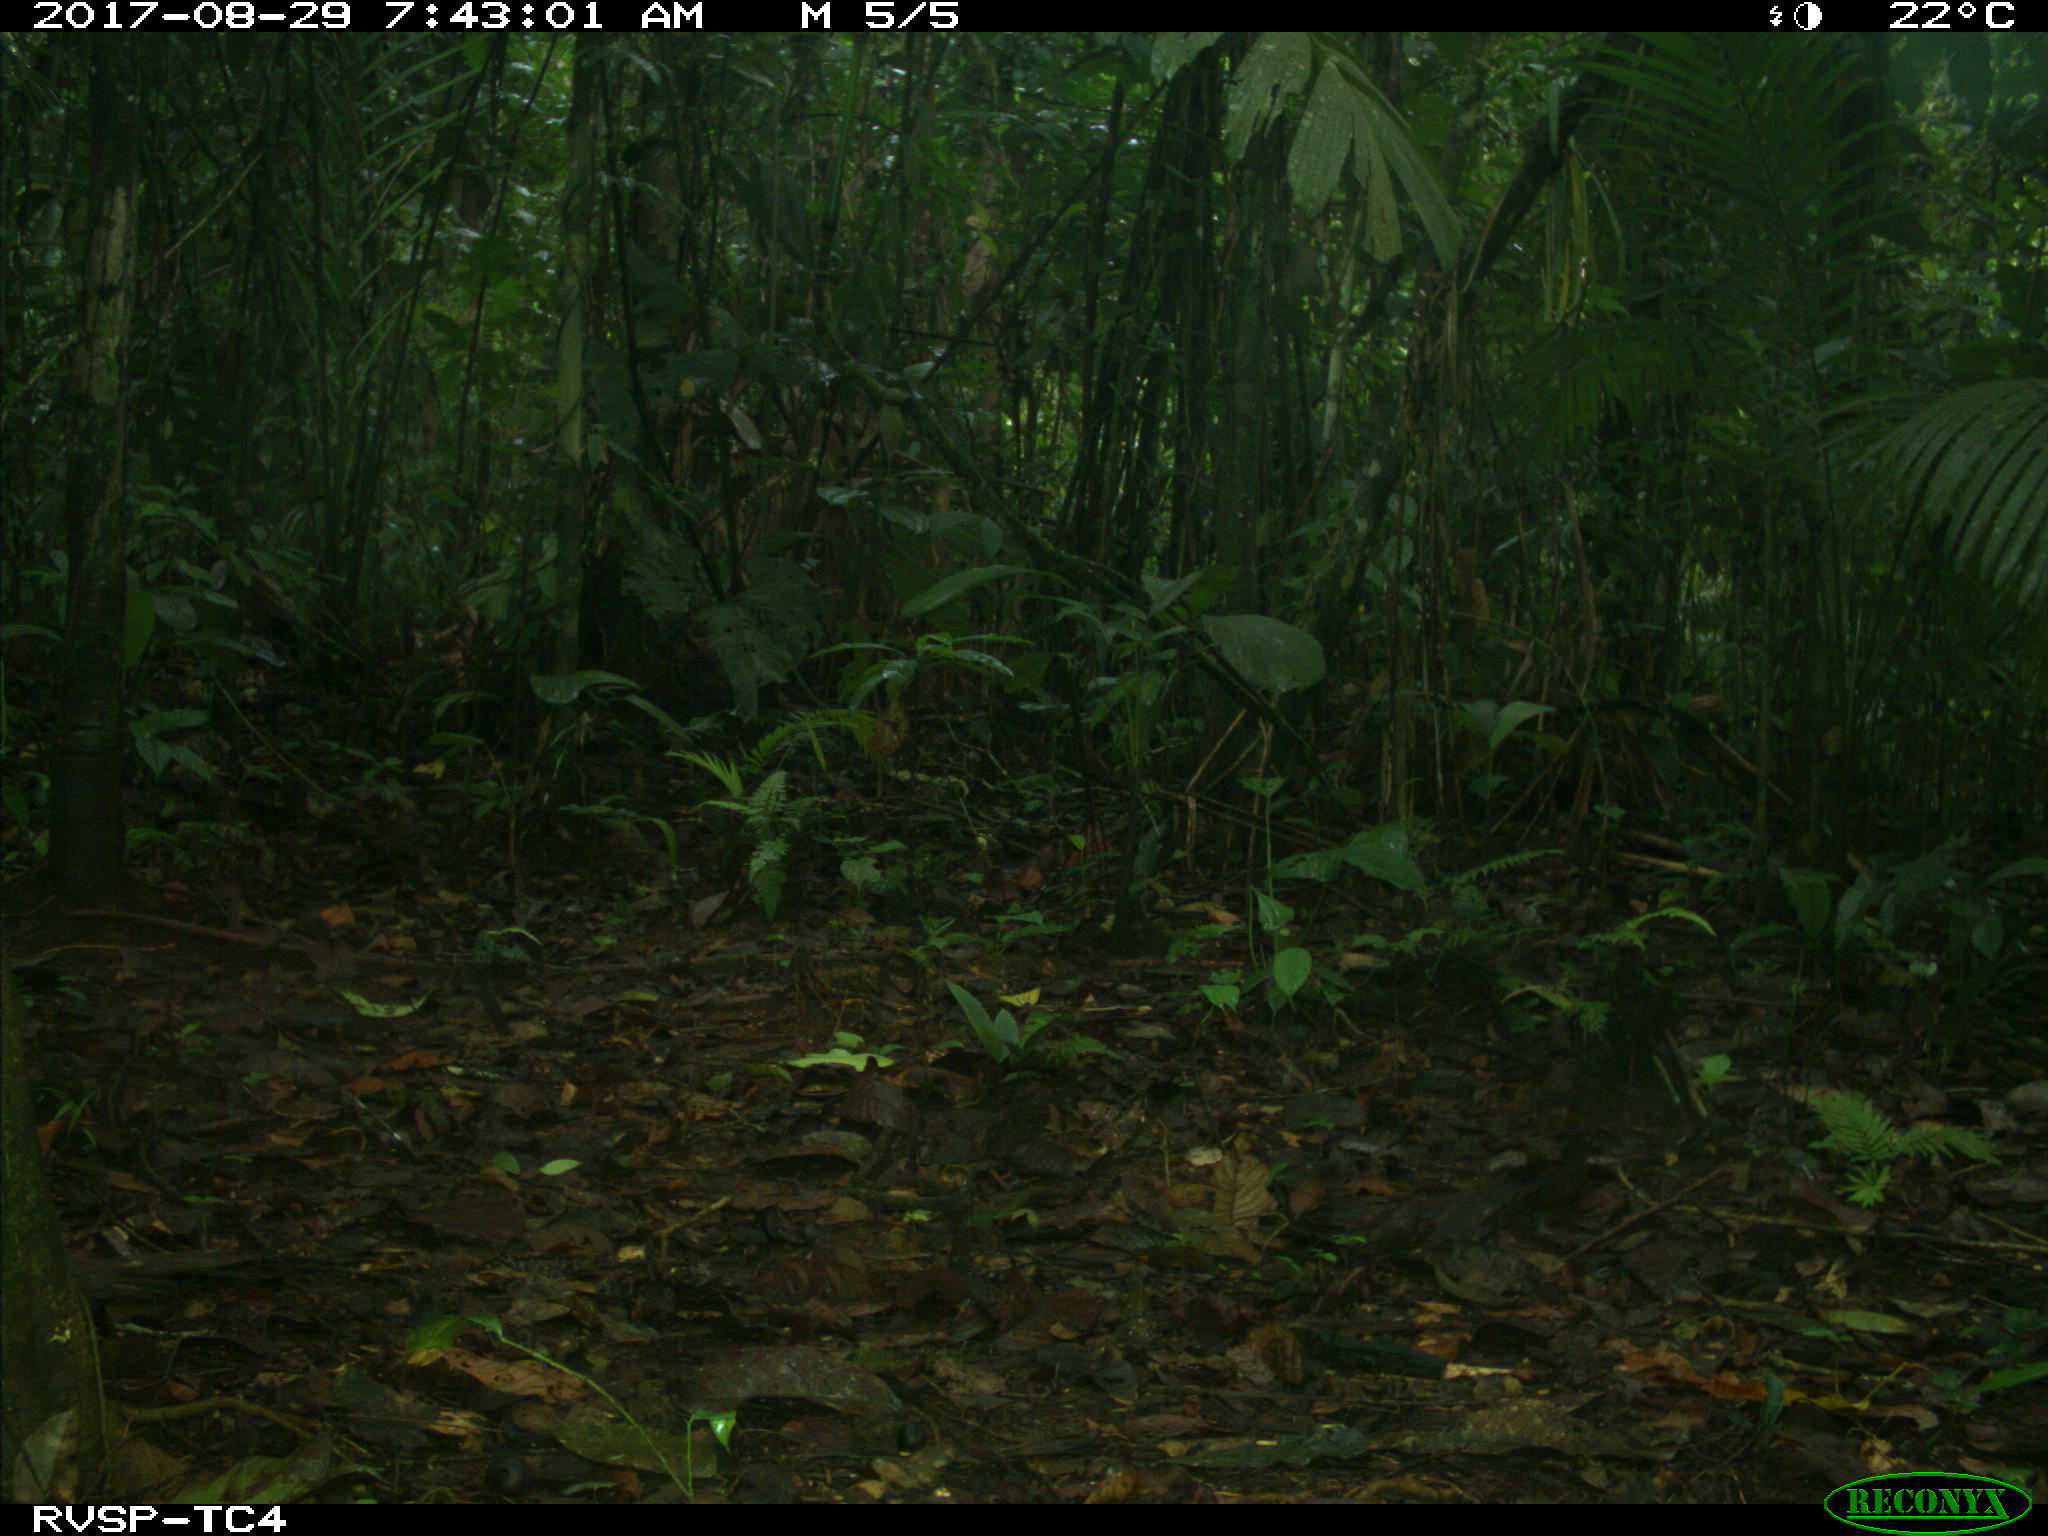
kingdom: Animalia
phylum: Chordata
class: Mammalia
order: Rodentia
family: Dasyproctidae
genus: Dasyprocta
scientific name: Dasyprocta punctata
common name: Central american agouti
